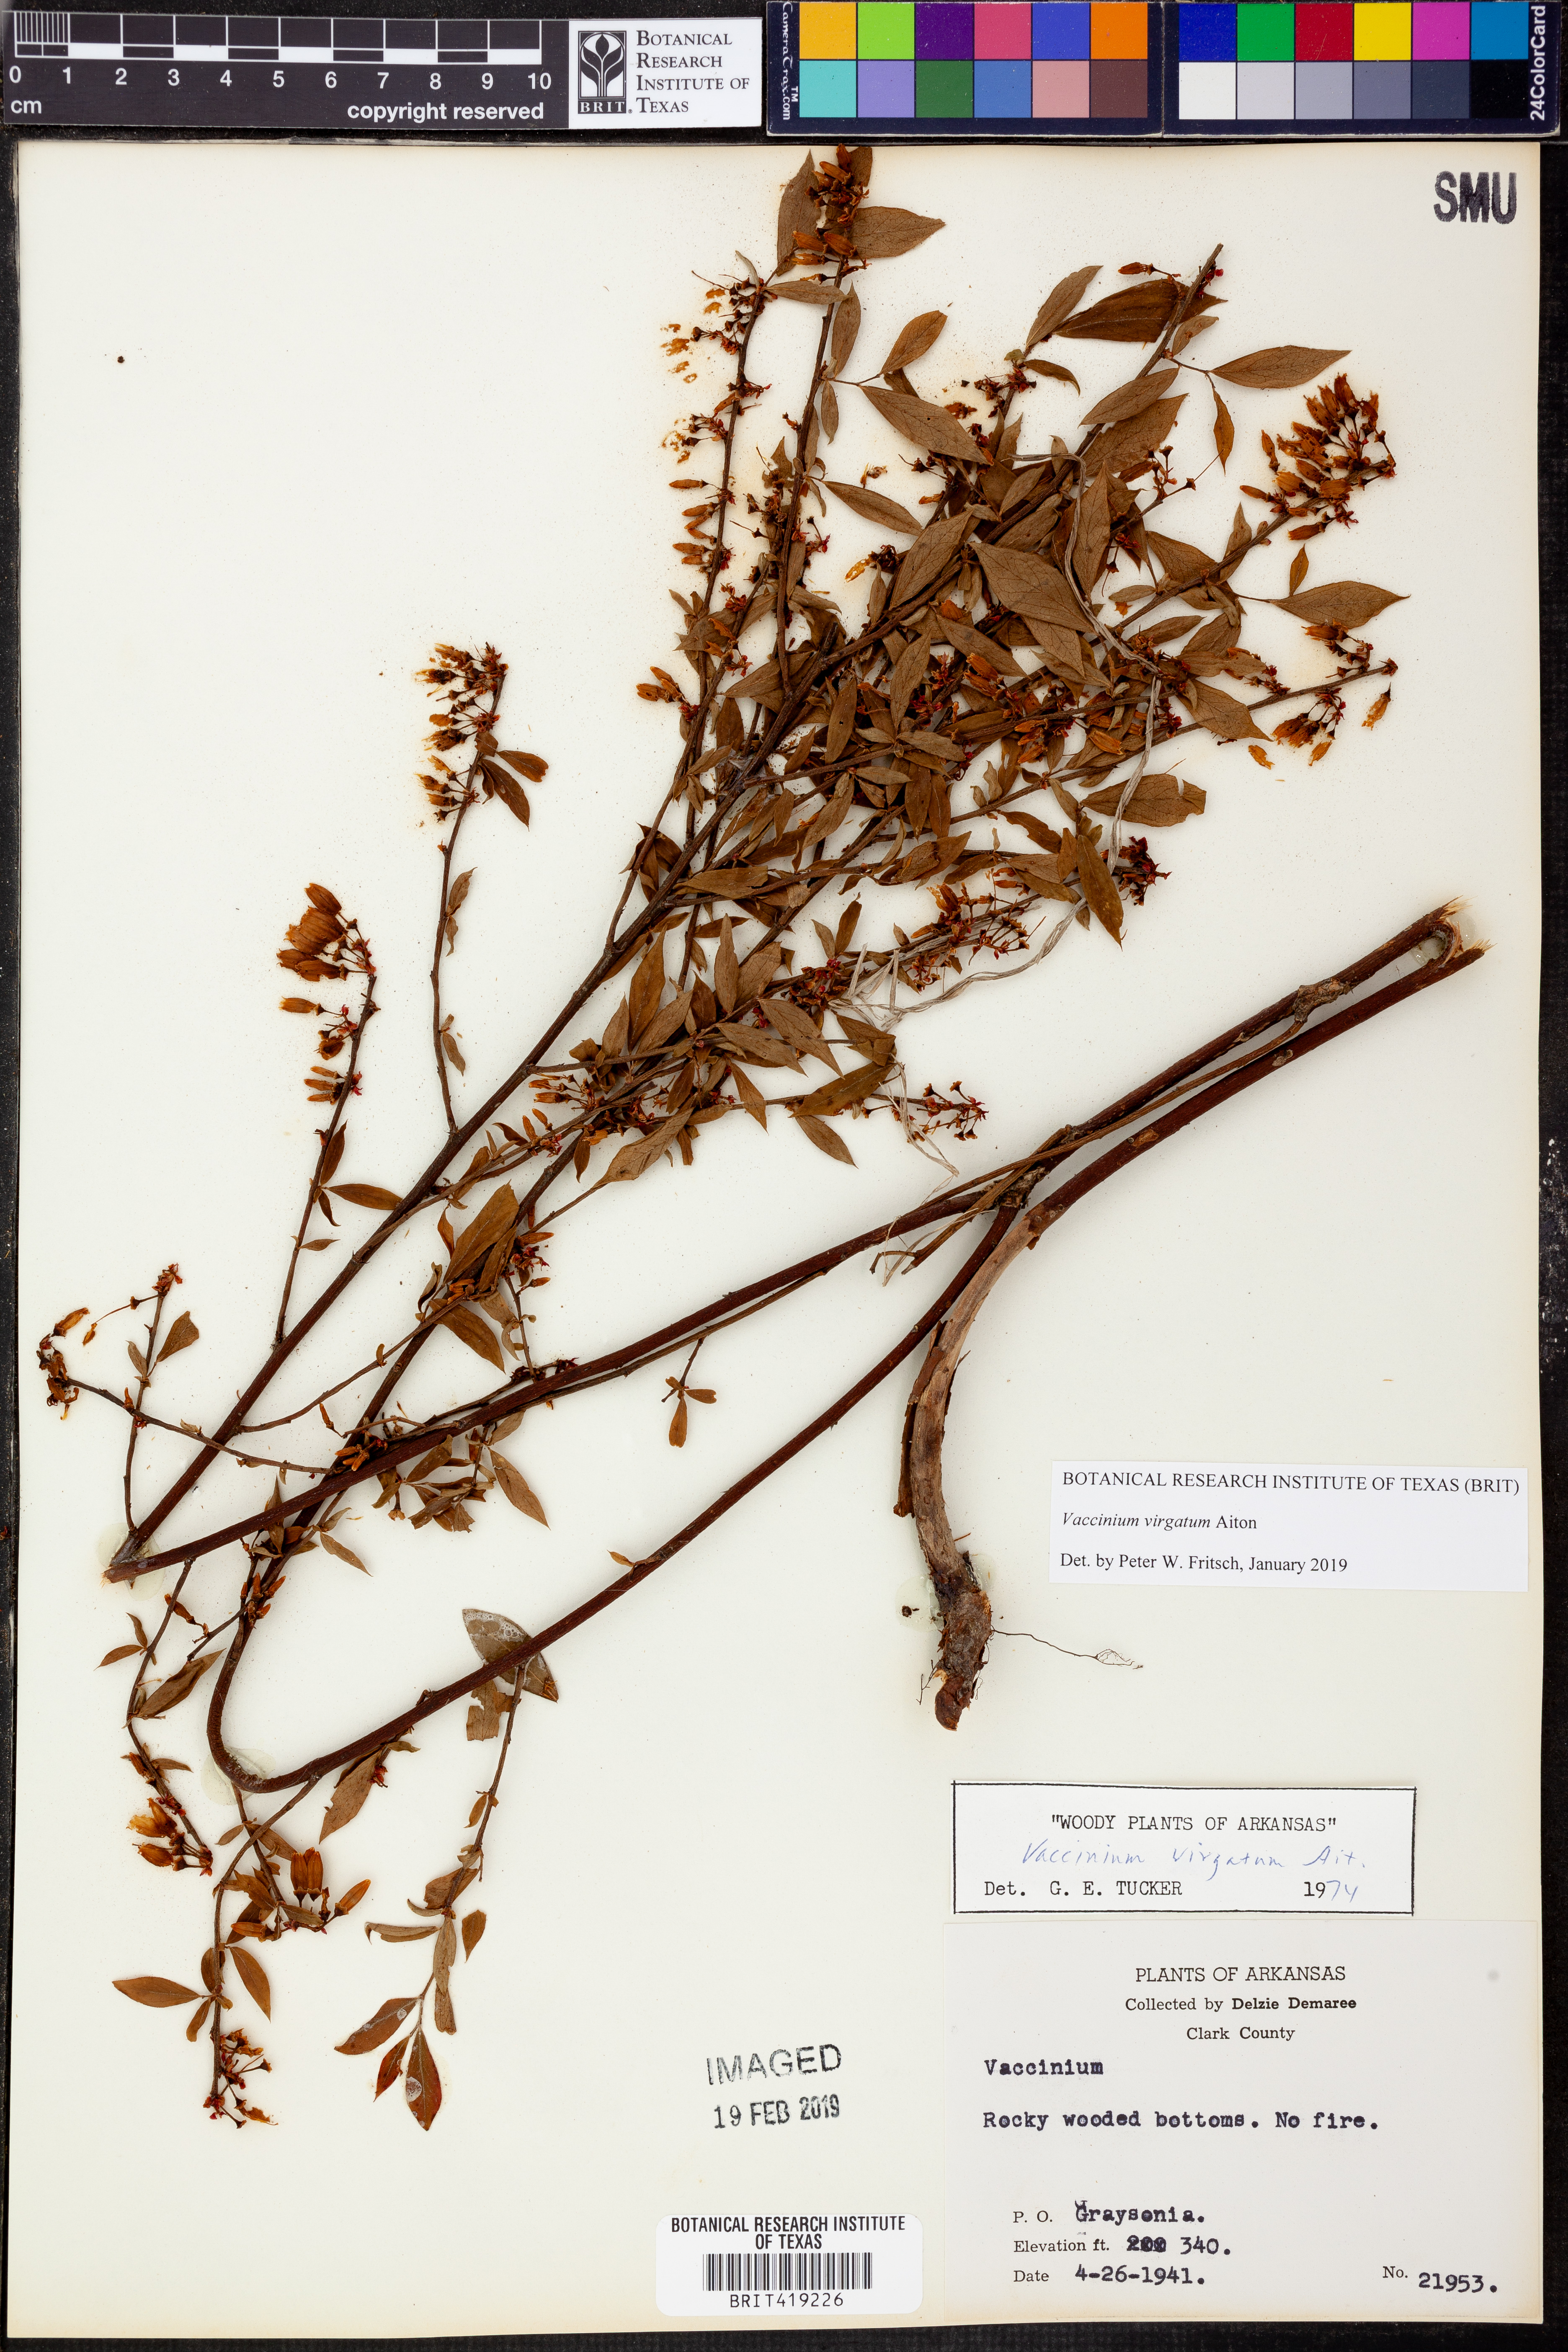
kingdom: Plantae
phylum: Tracheophyta
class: Magnoliopsida
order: Ericales
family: Ericaceae
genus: Vaccinium
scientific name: Vaccinium corymbosum
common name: Blueberry
